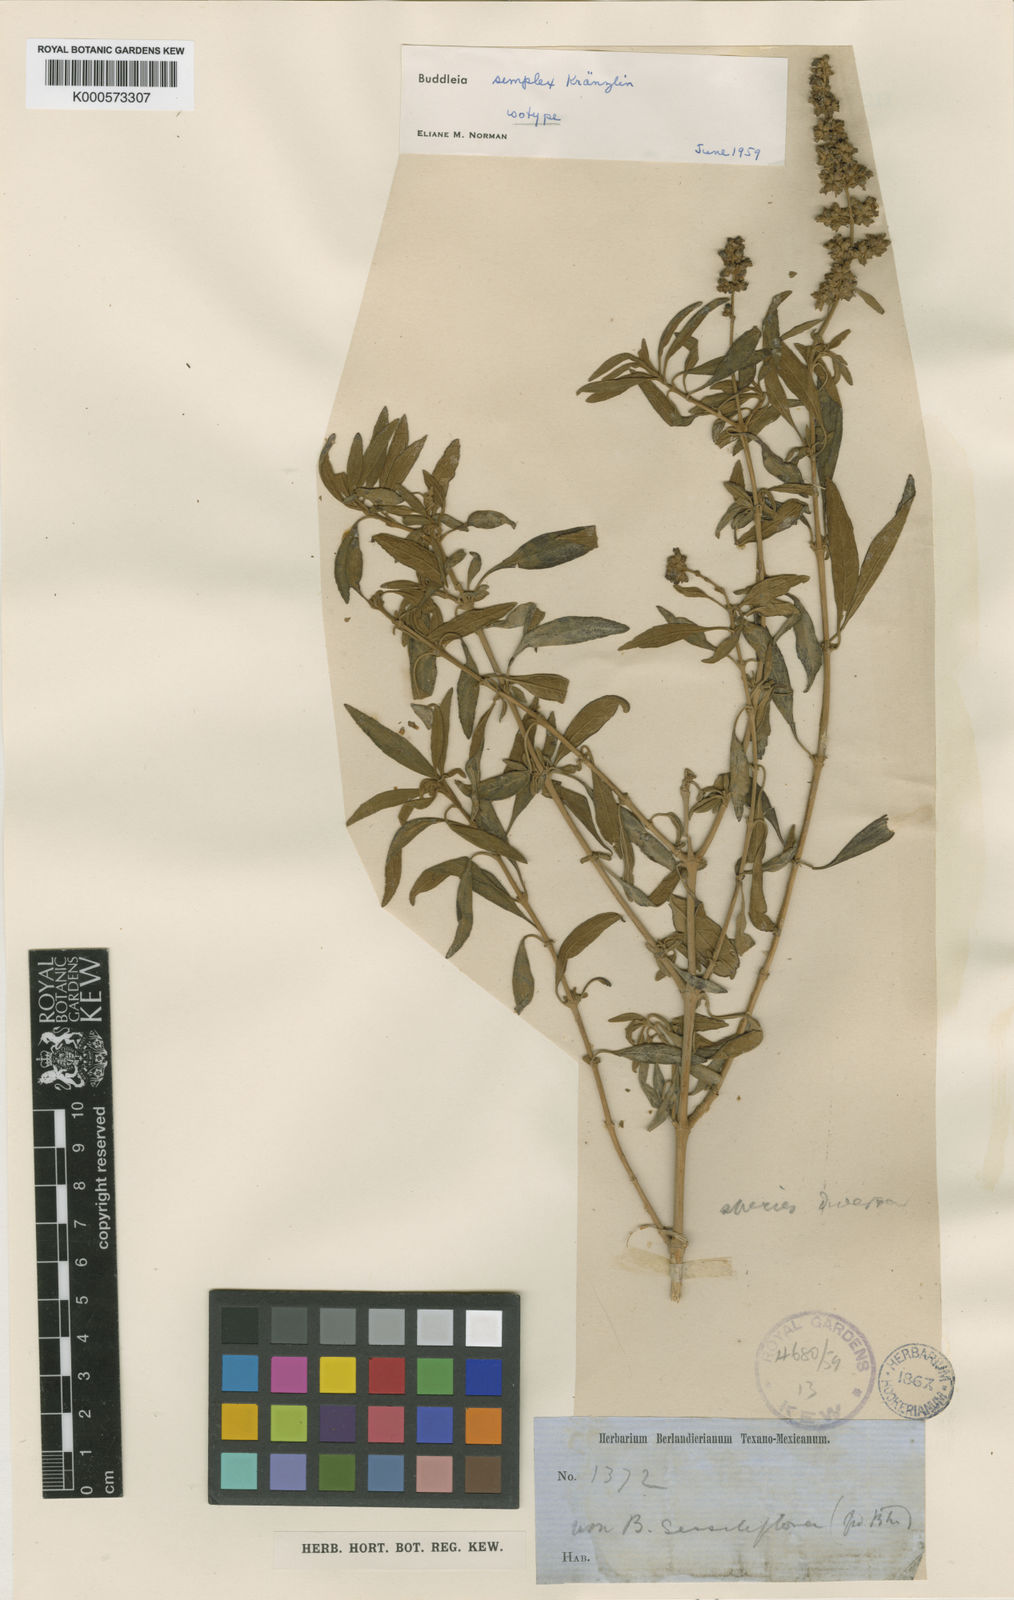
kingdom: Plantae
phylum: Tracheophyta
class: Magnoliopsida
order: Lamiales
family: Scrophulariaceae
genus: Buddleja
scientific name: Buddleja marrubiifolia
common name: Woolly butterfly-bush
